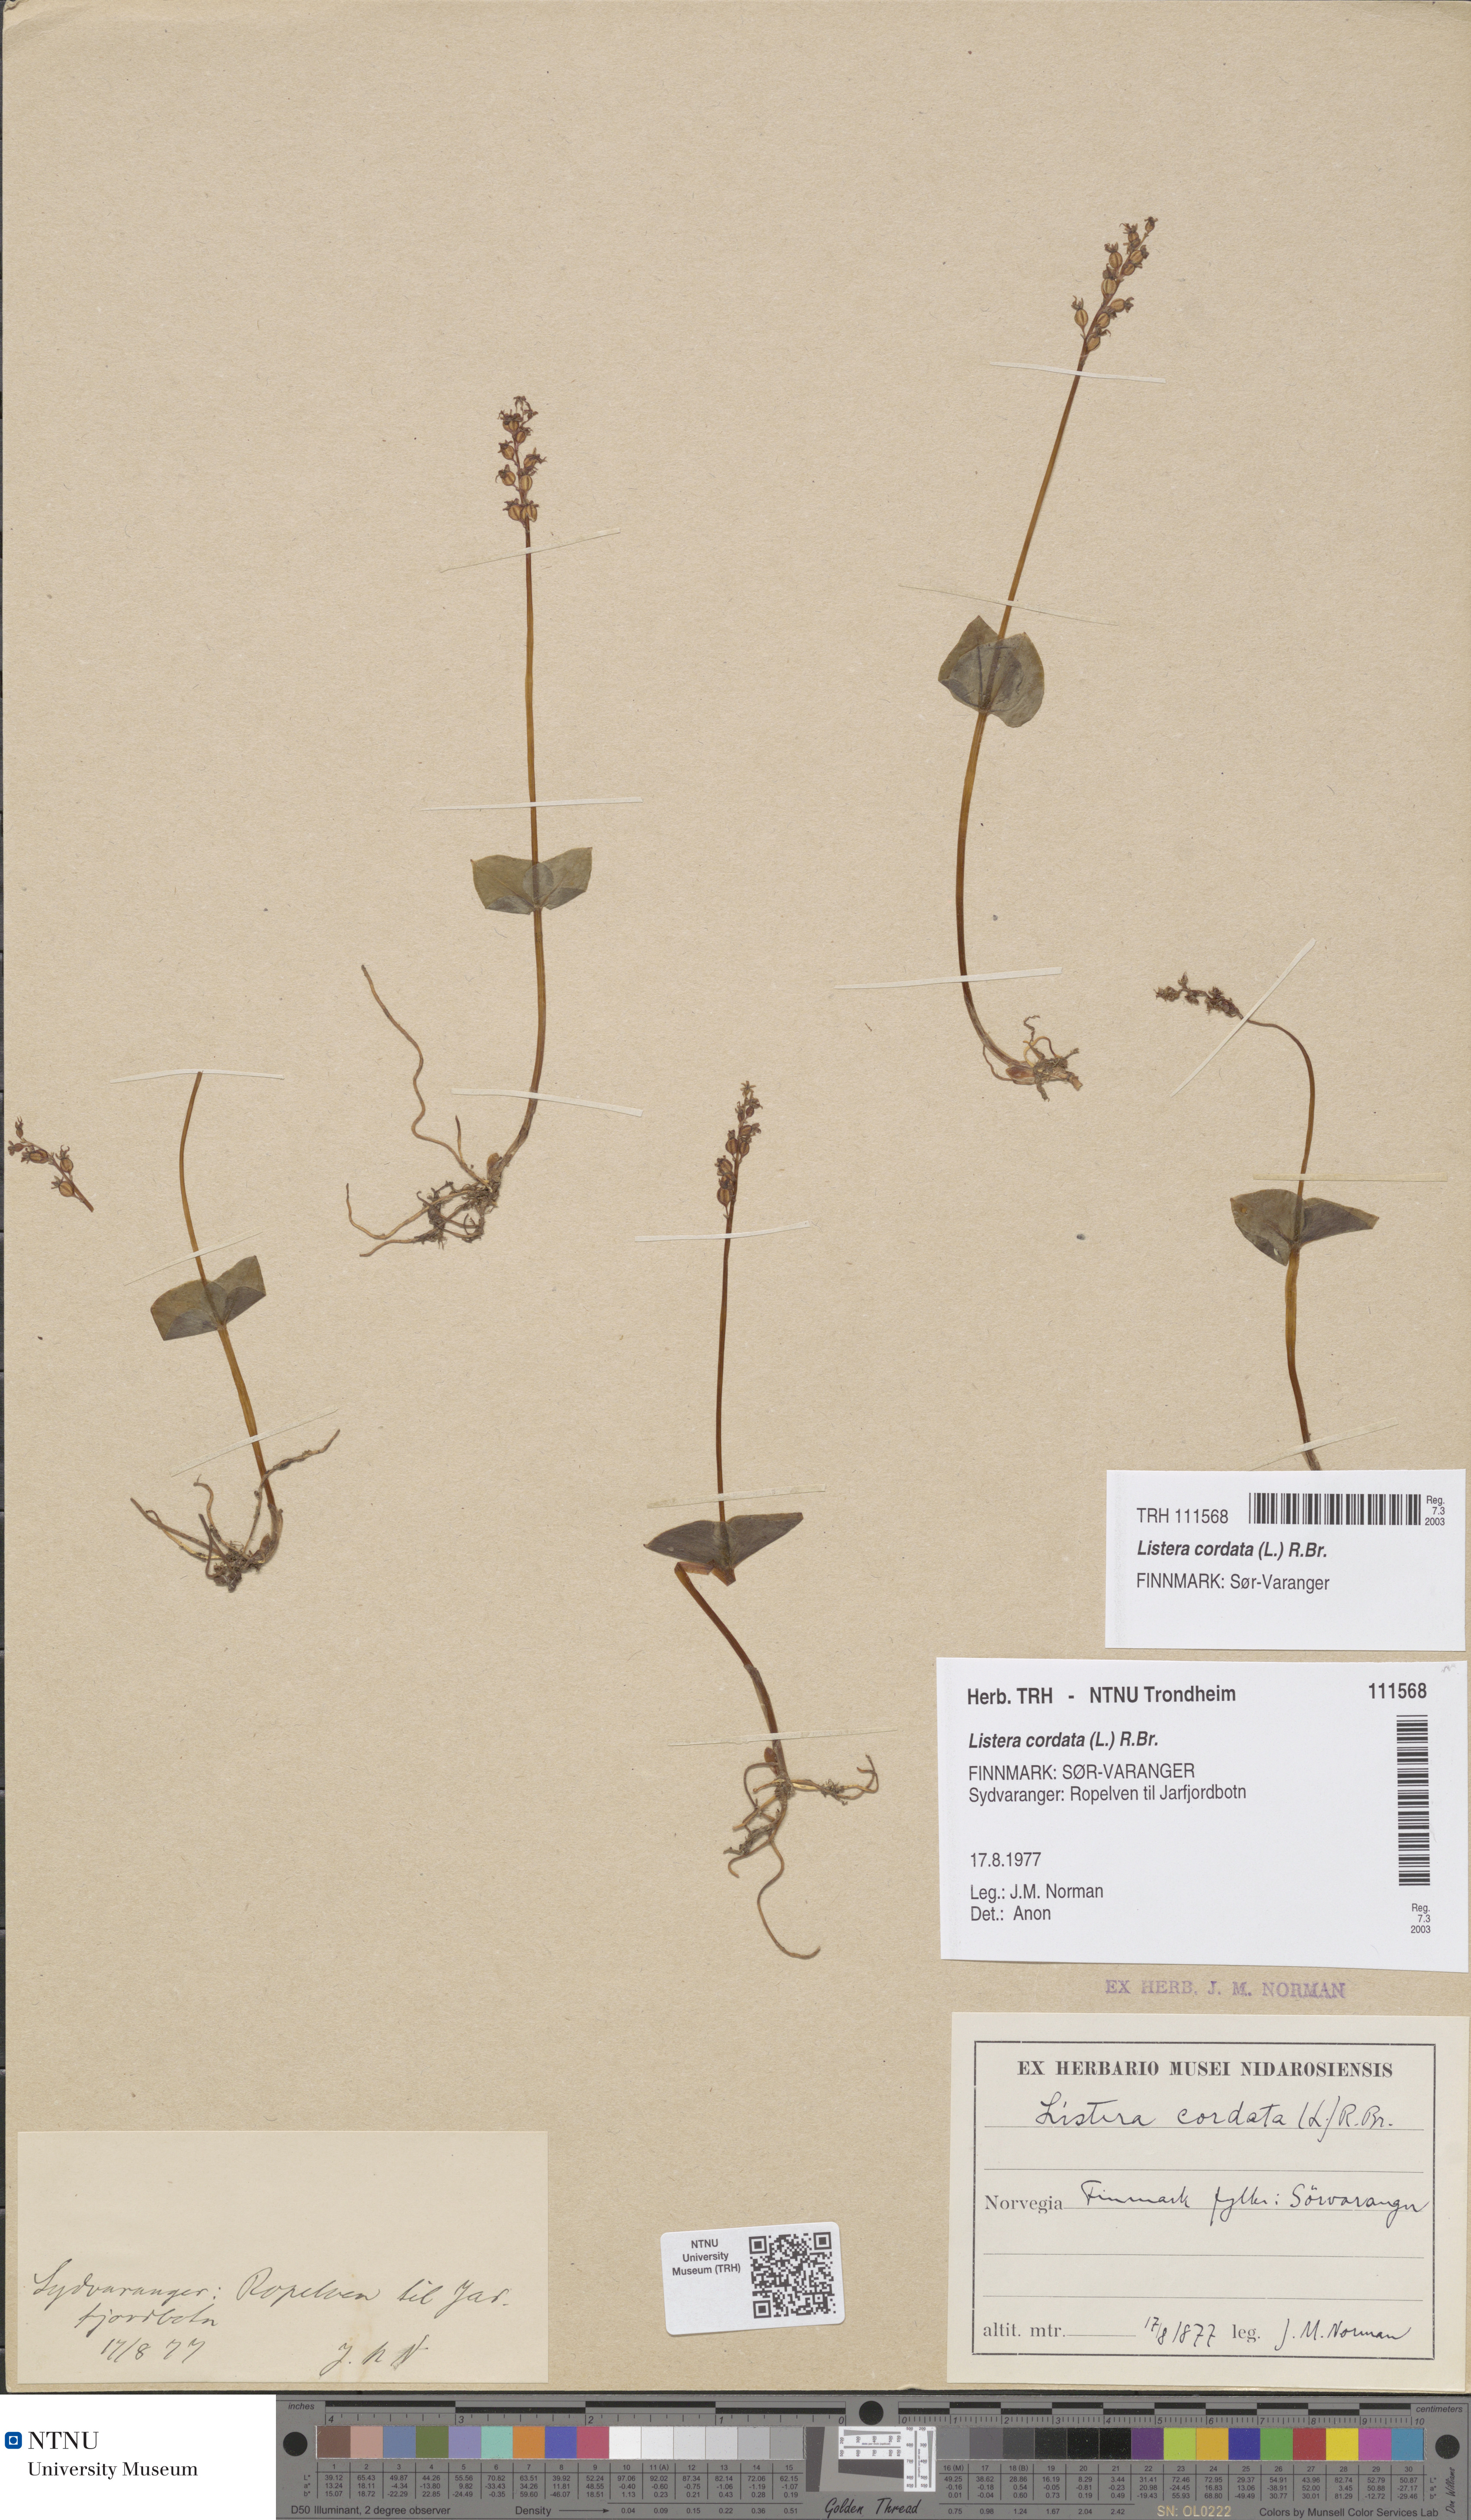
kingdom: Plantae
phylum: Tracheophyta
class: Liliopsida
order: Asparagales
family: Orchidaceae
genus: Neottia
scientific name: Neottia cordata
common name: Lesser twayblade
